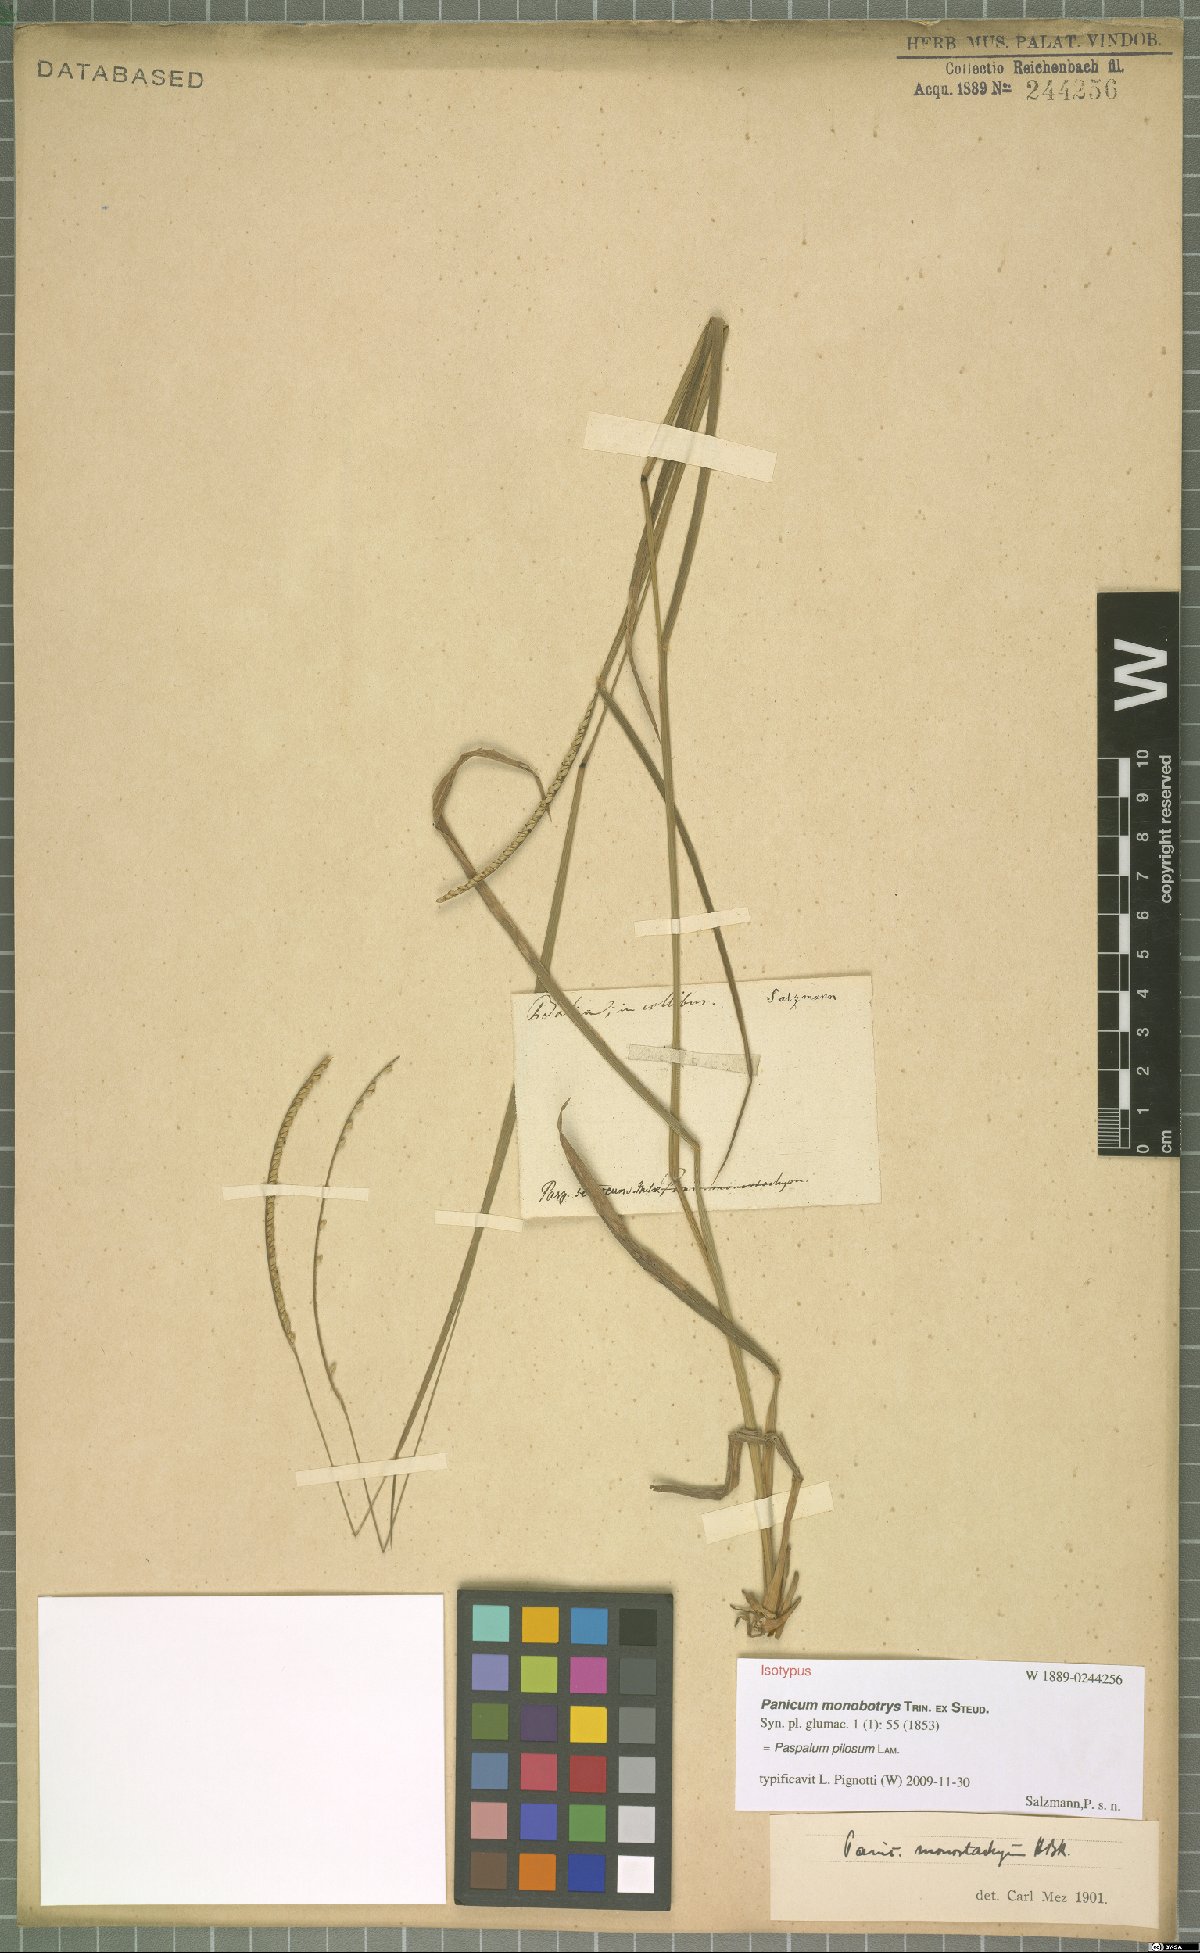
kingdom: Plantae
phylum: Tracheophyta
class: Liliopsida
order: Poales
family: Poaceae
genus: Paspalum
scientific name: Paspalum pilosum
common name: Crowngrass
